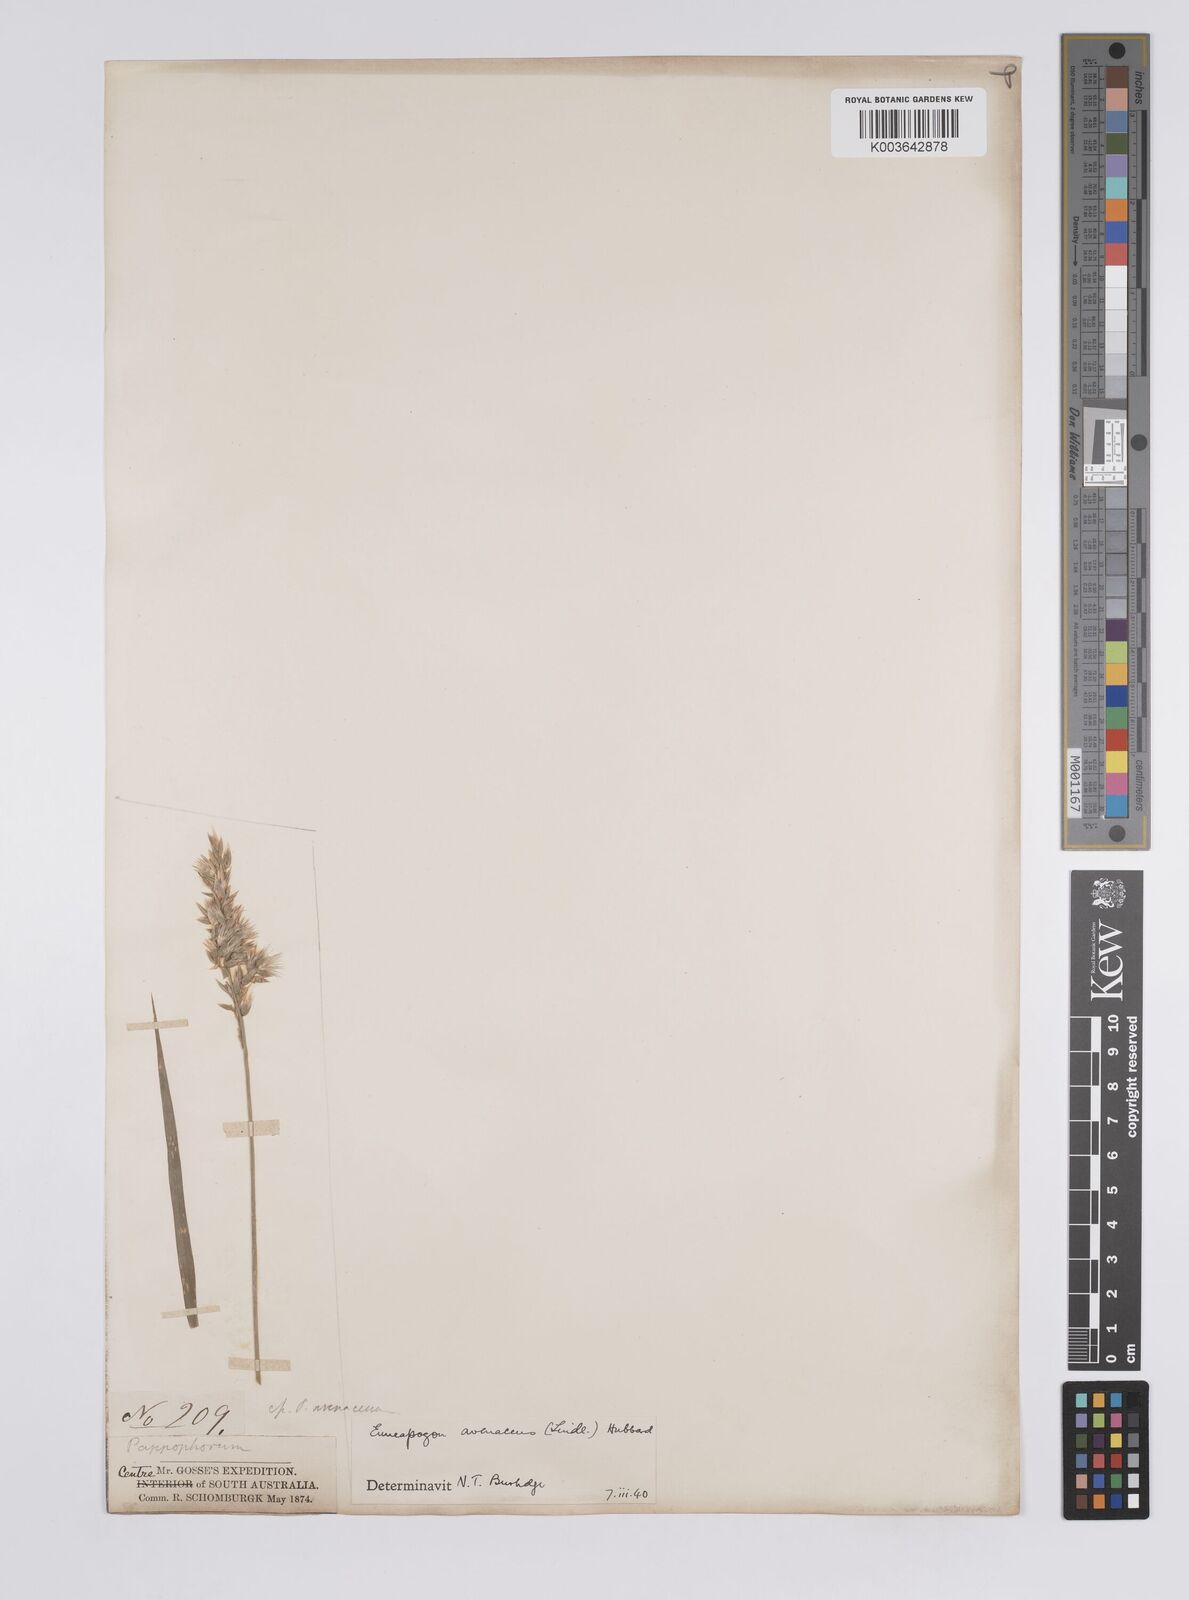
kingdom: Plantae
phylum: Tracheophyta
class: Liliopsida
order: Poales
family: Poaceae
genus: Enneapogon
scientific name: Enneapogon avenaceus
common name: Hairy oat grass
